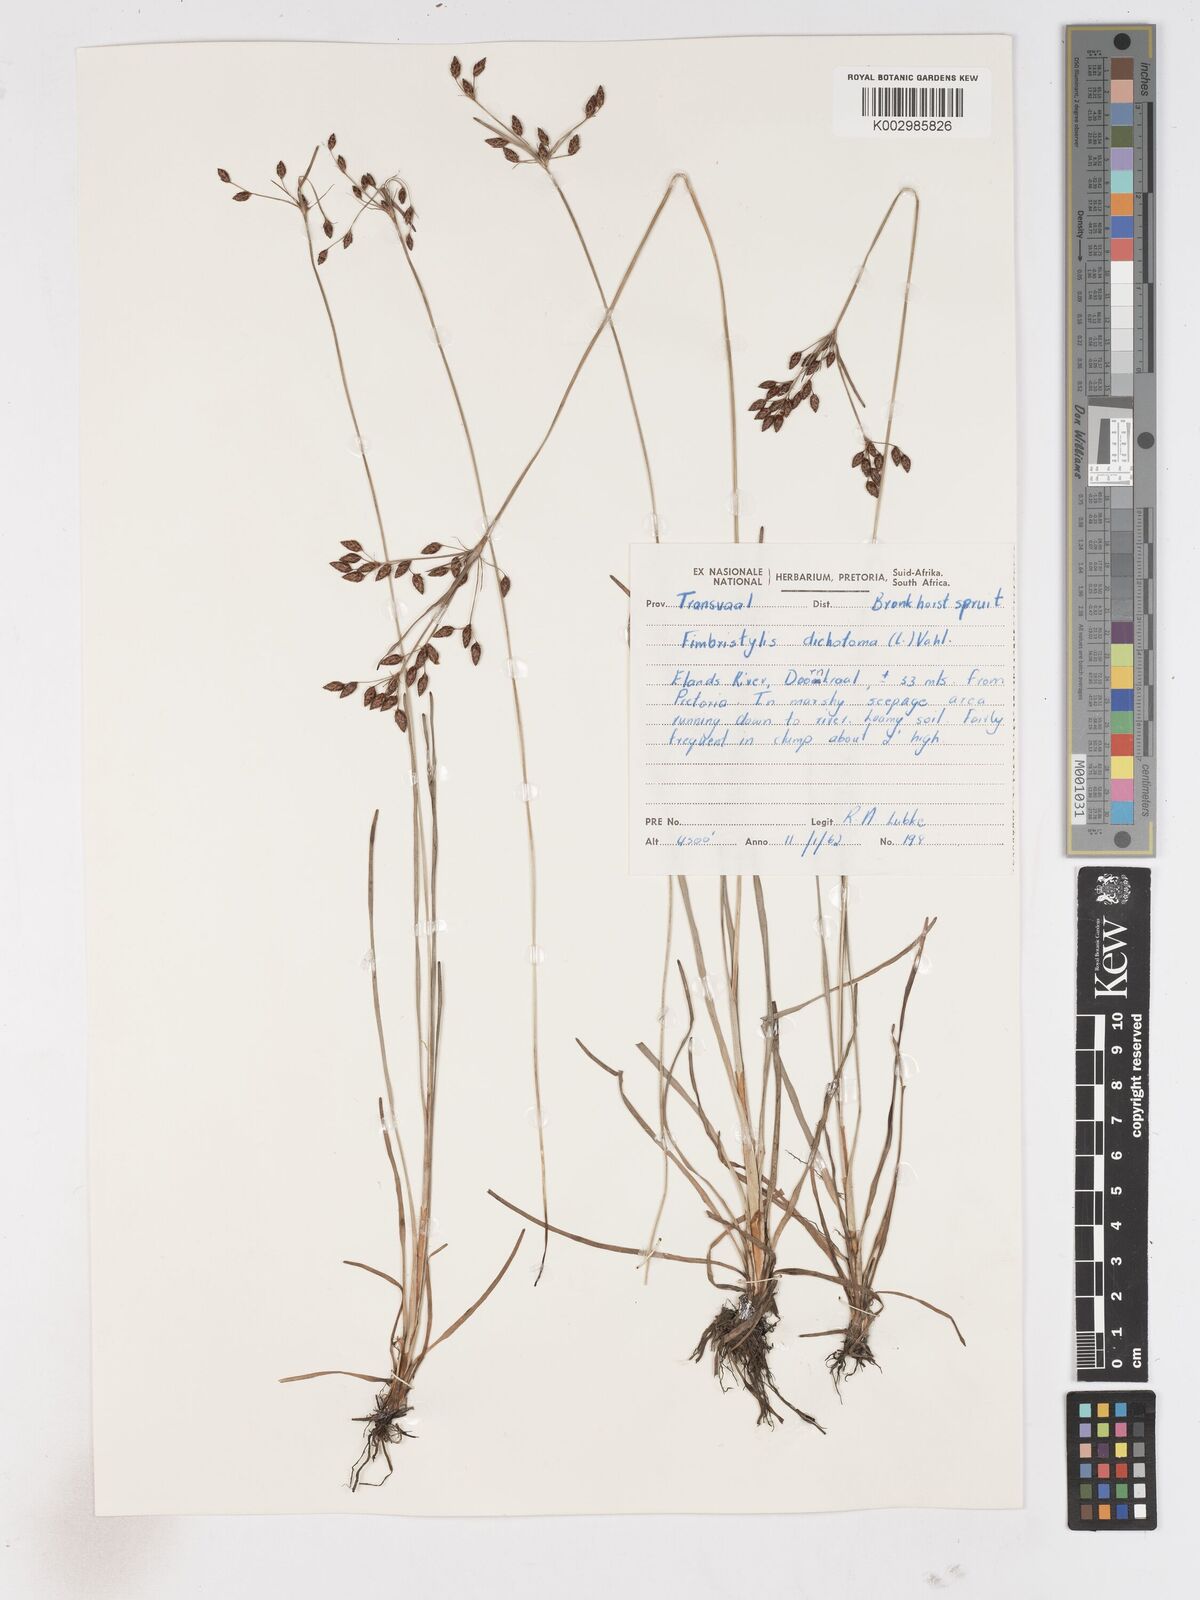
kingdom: Plantae
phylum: Tracheophyta
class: Liliopsida
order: Poales
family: Cyperaceae
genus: Fimbristylis
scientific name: Fimbristylis dichotoma
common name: Forked fimbry
